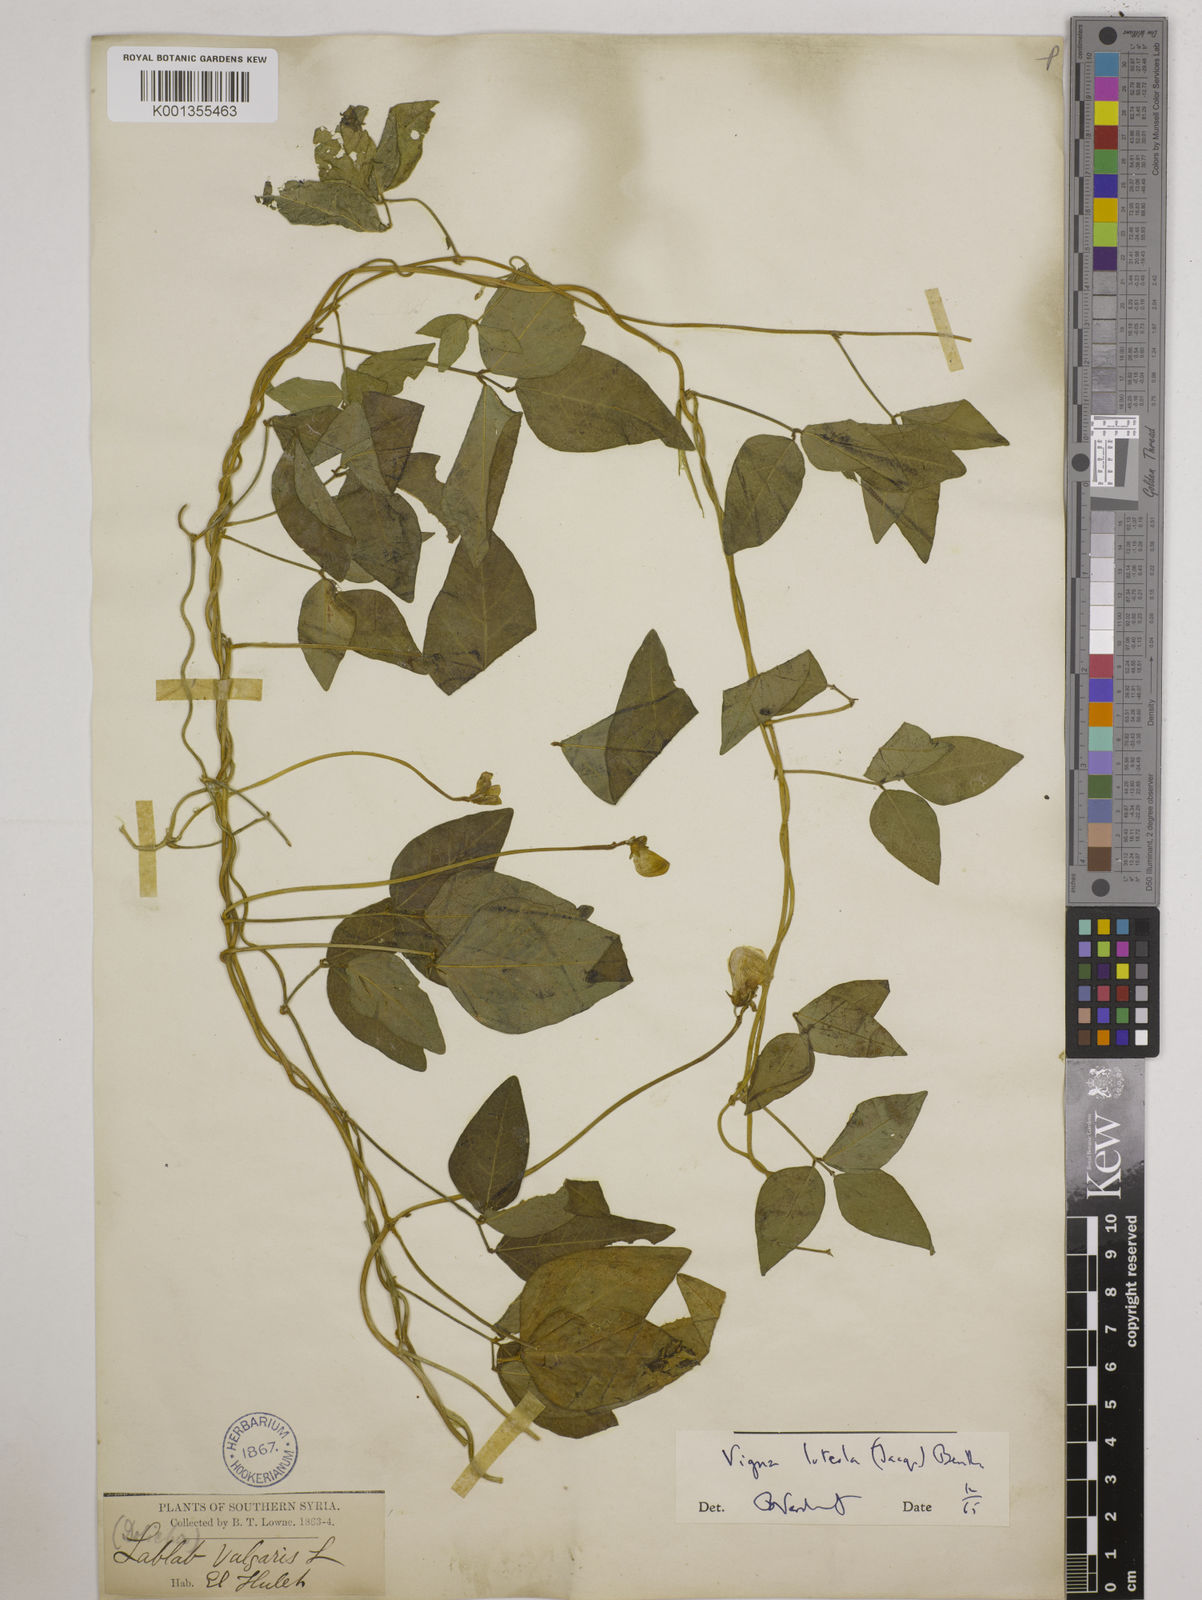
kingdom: Plantae
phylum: Tracheophyta
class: Magnoliopsida
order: Fabales
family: Fabaceae
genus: Vigna
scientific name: Vigna luteola
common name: Hairypod cowpea
